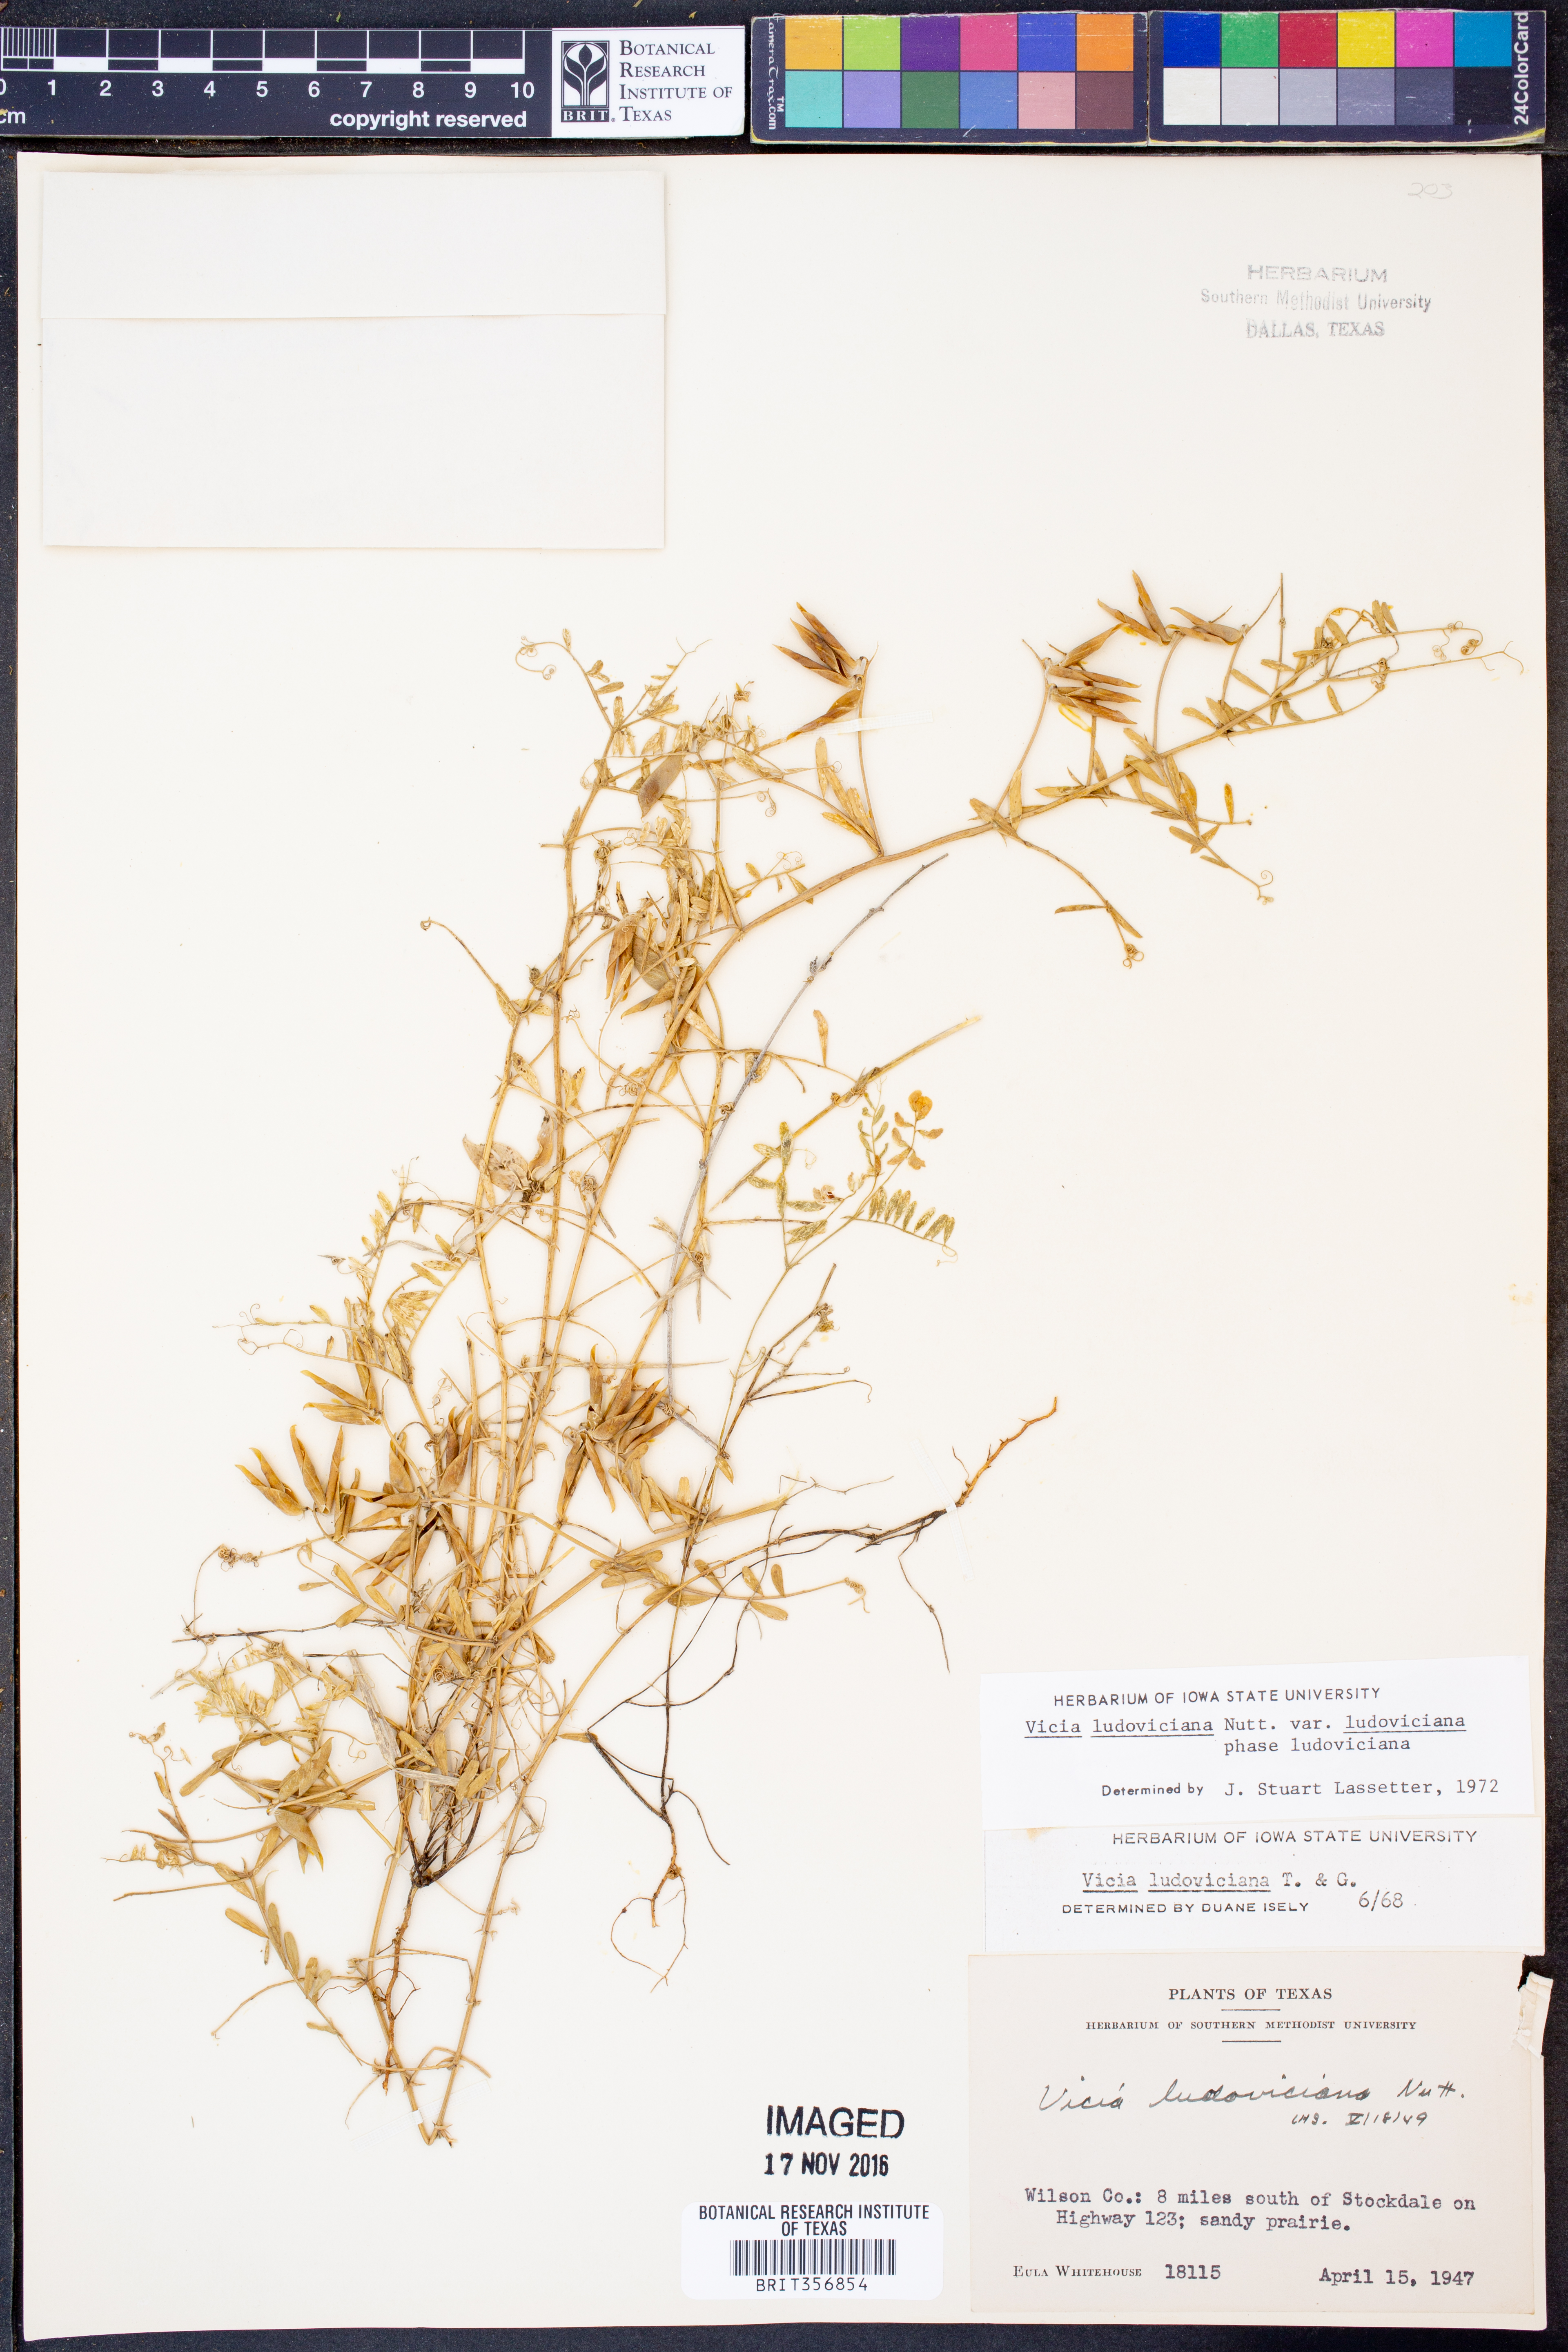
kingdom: Plantae
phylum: Tracheophyta
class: Magnoliopsida
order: Fabales
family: Fabaceae
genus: Vicia
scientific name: Vicia ludoviciana
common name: Louisiana vetch
